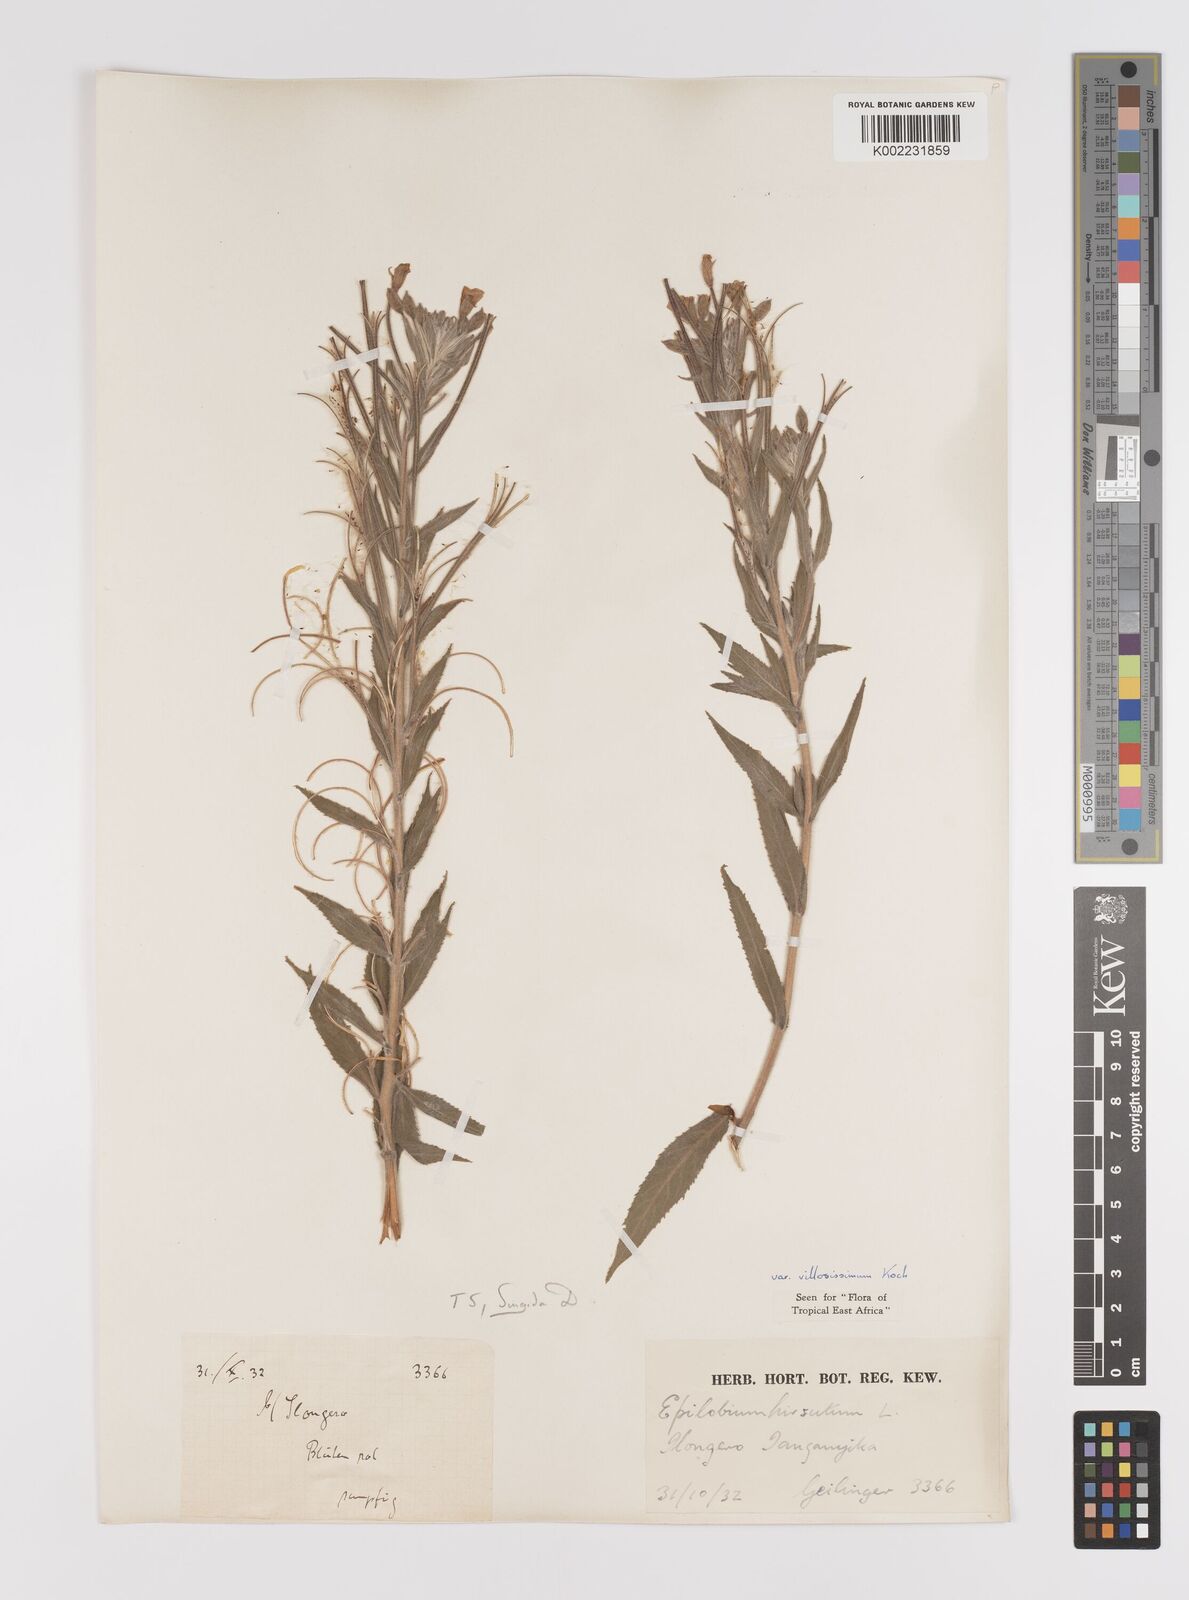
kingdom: Plantae
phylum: Tracheophyta
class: Magnoliopsida
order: Myrtales
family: Onagraceae
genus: Epilobium
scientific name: Epilobium hirsutum
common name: Great willowherb
